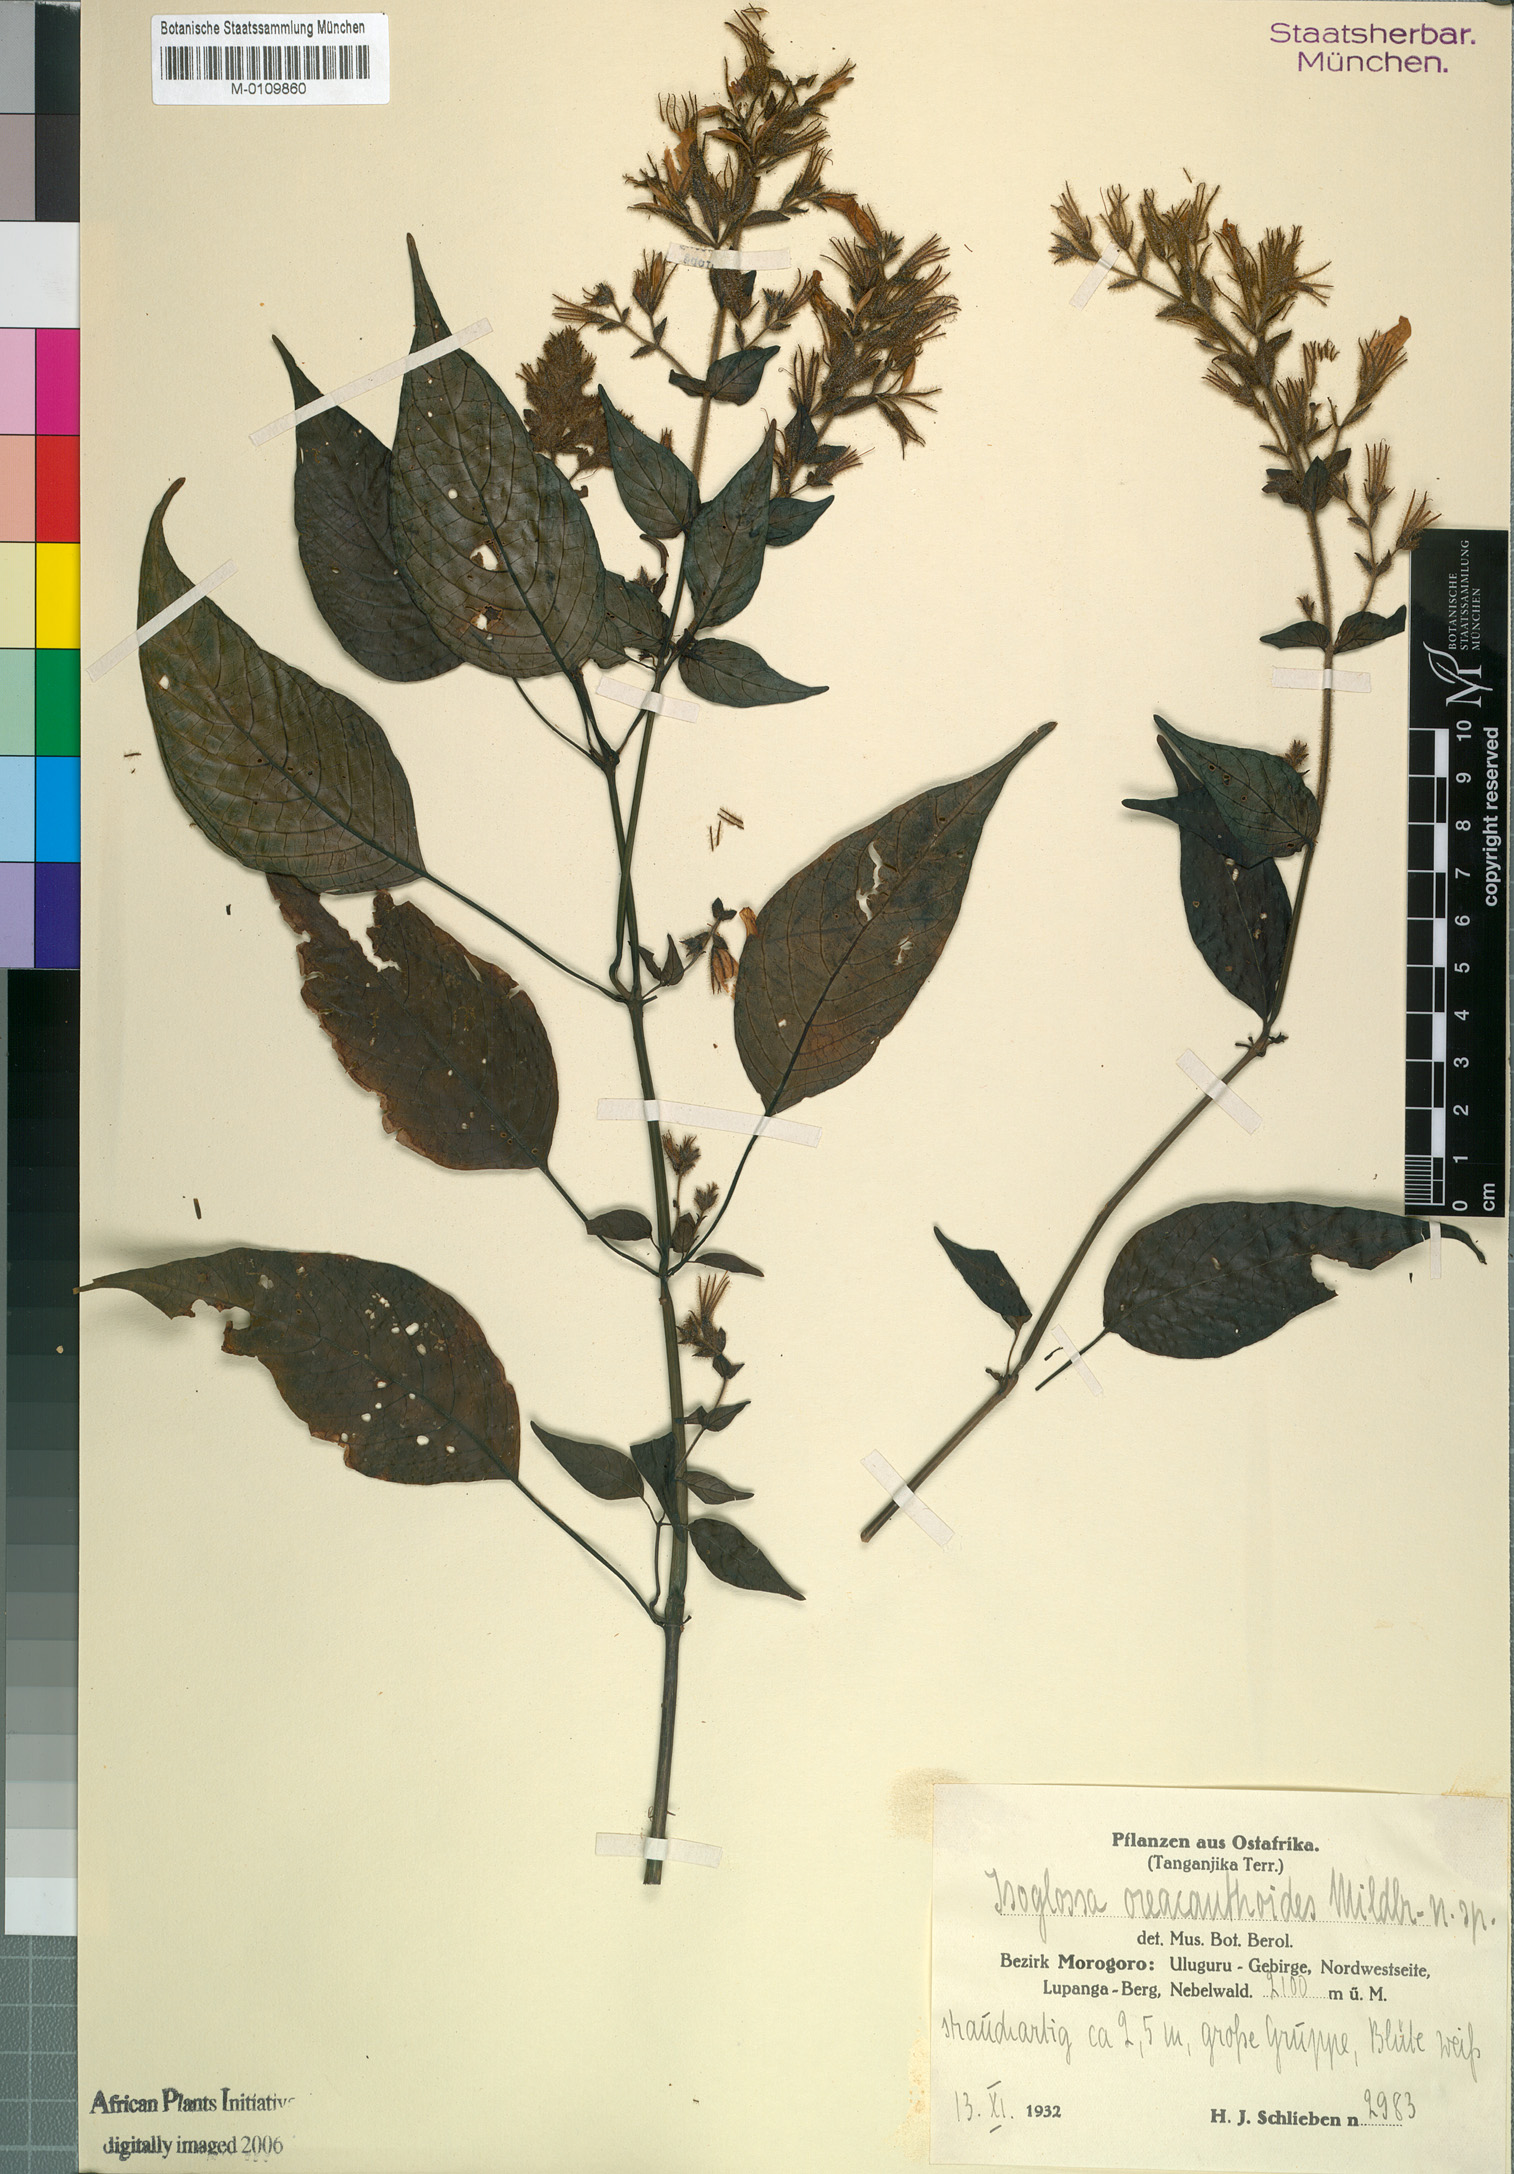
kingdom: Plantae
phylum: Tracheophyta
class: Magnoliopsida
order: Lamiales
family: Acanthaceae
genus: Isoglossa
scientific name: Isoglossa oreacanthoides
